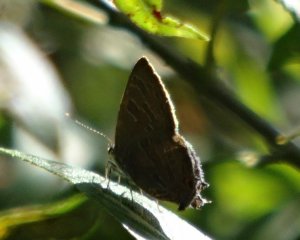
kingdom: Animalia
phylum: Arthropoda
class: Insecta
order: Lepidoptera
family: Lycaenidae
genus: Satyrium
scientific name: Satyrium liparops
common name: Striped Hairstreak
